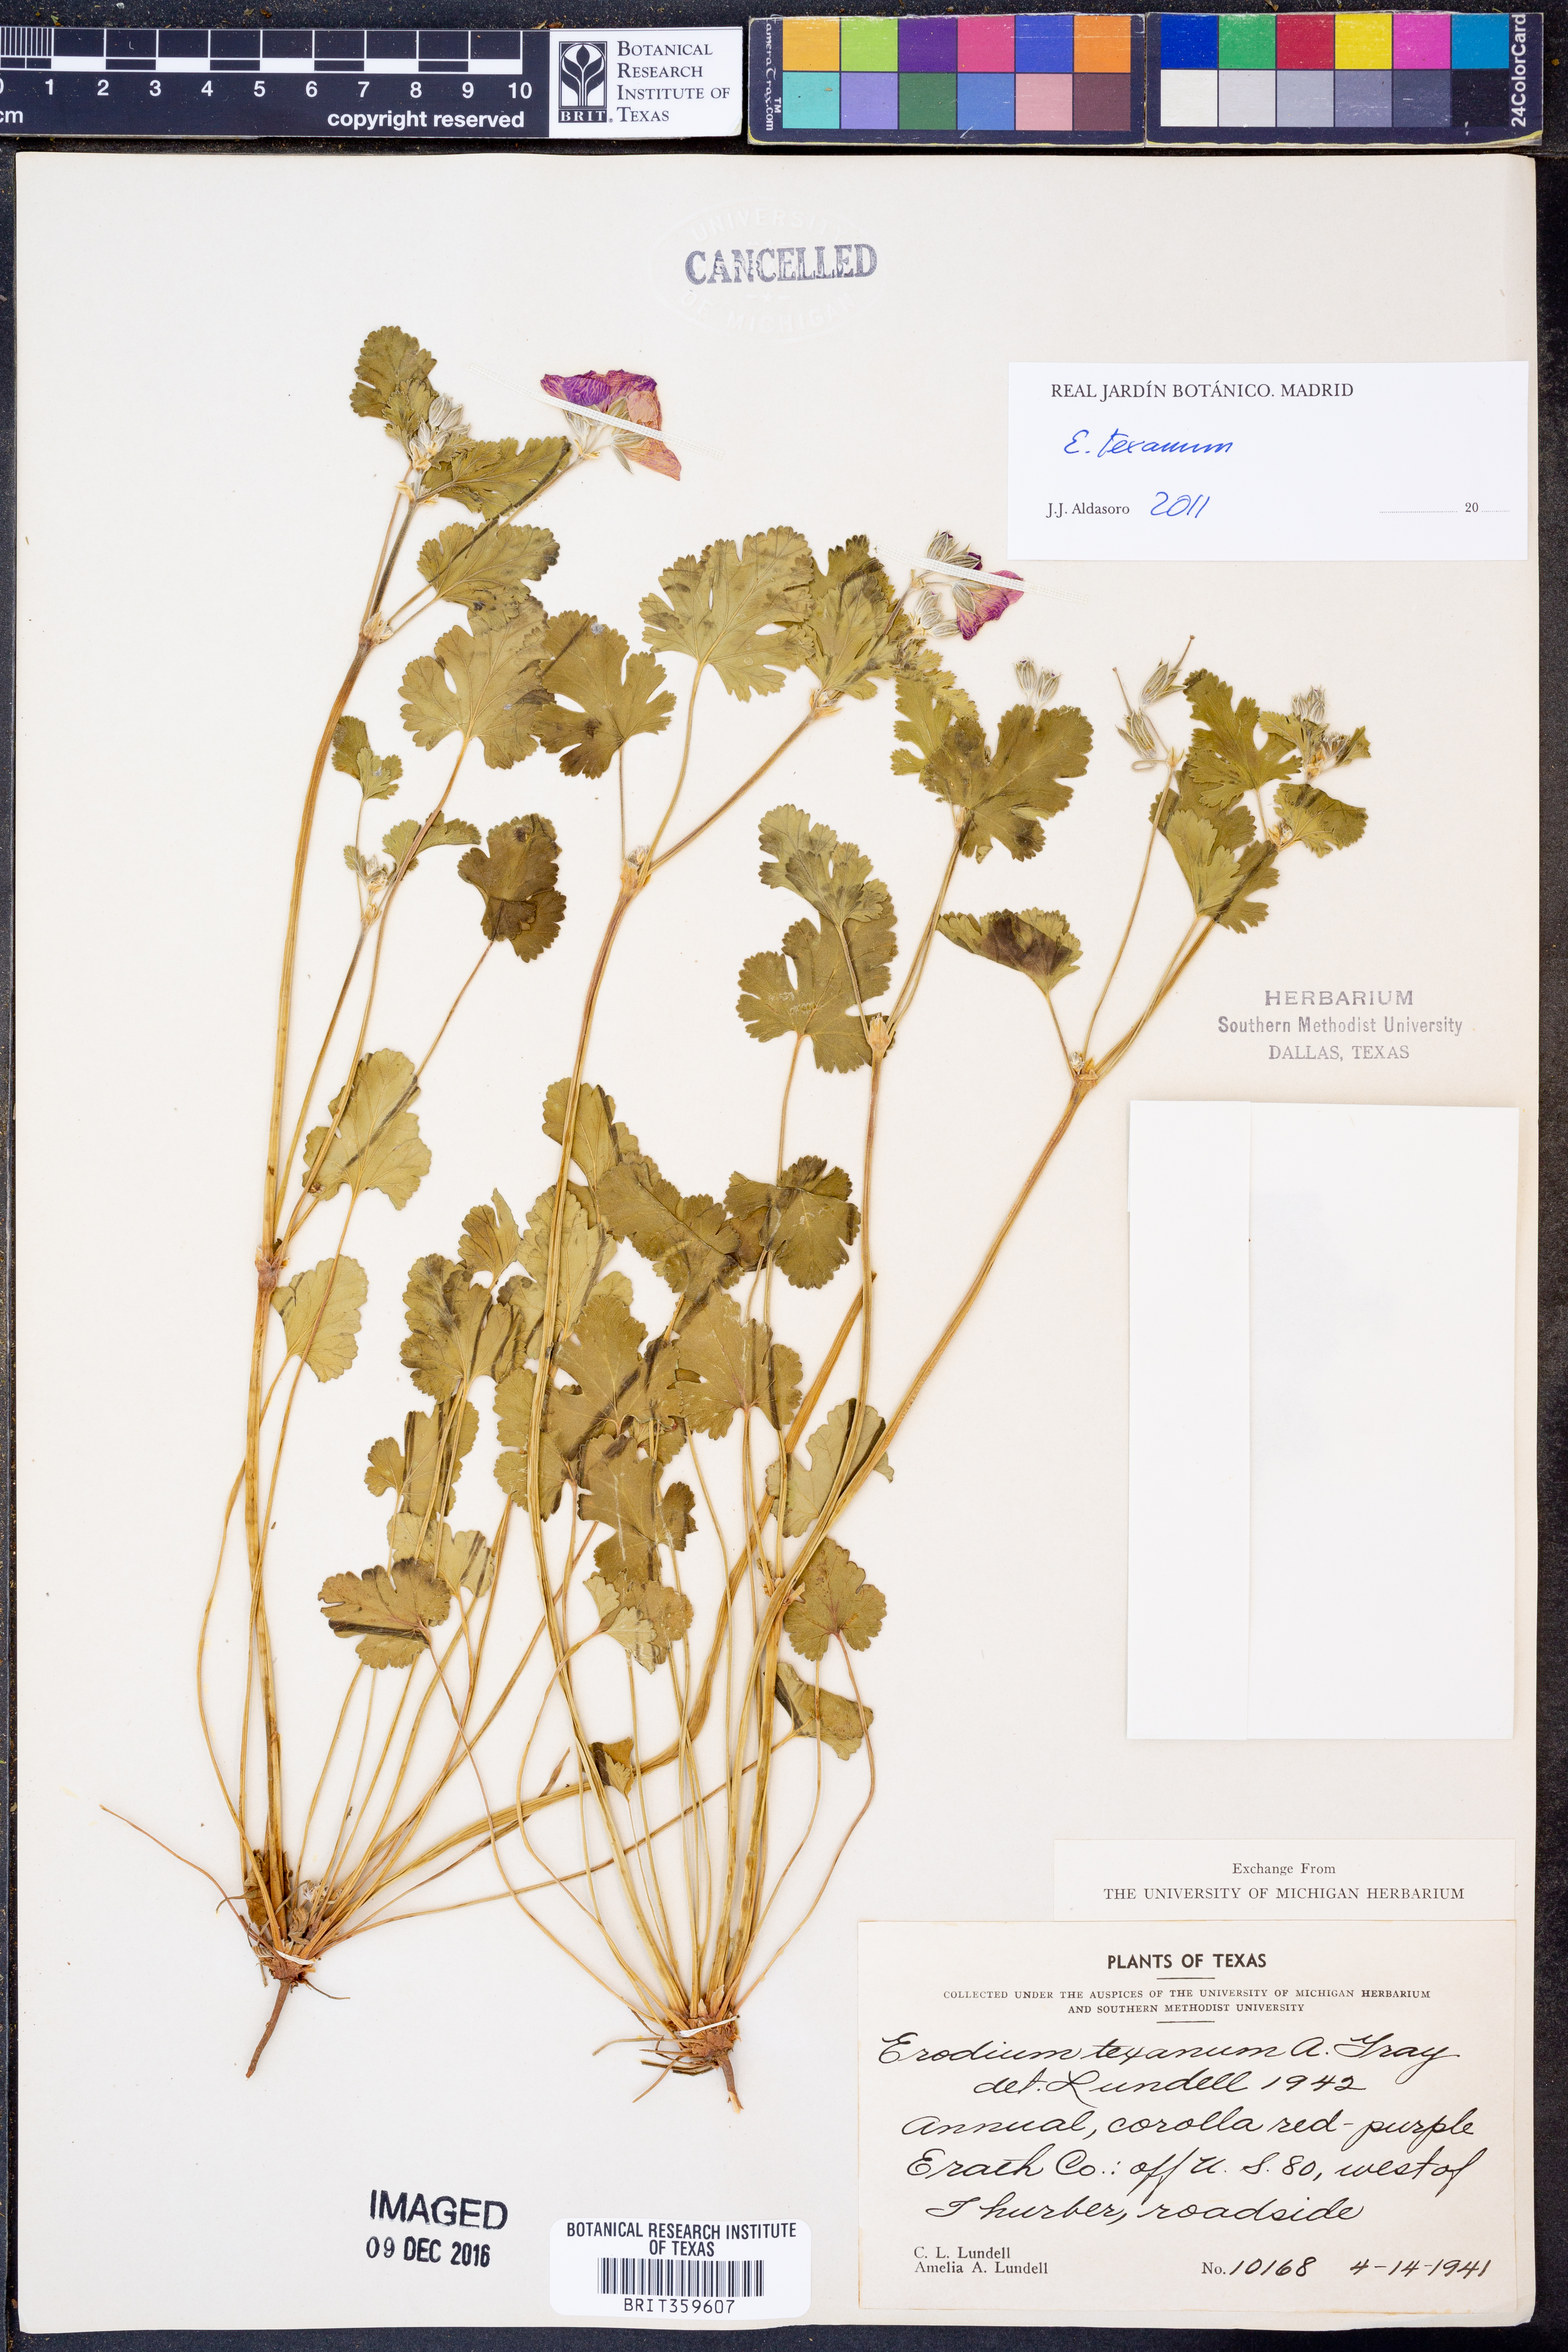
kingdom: Plantae
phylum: Tracheophyta
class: Magnoliopsida
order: Geraniales
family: Geraniaceae
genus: Erodium
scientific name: Erodium texanum
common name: Texas stork's-bill
